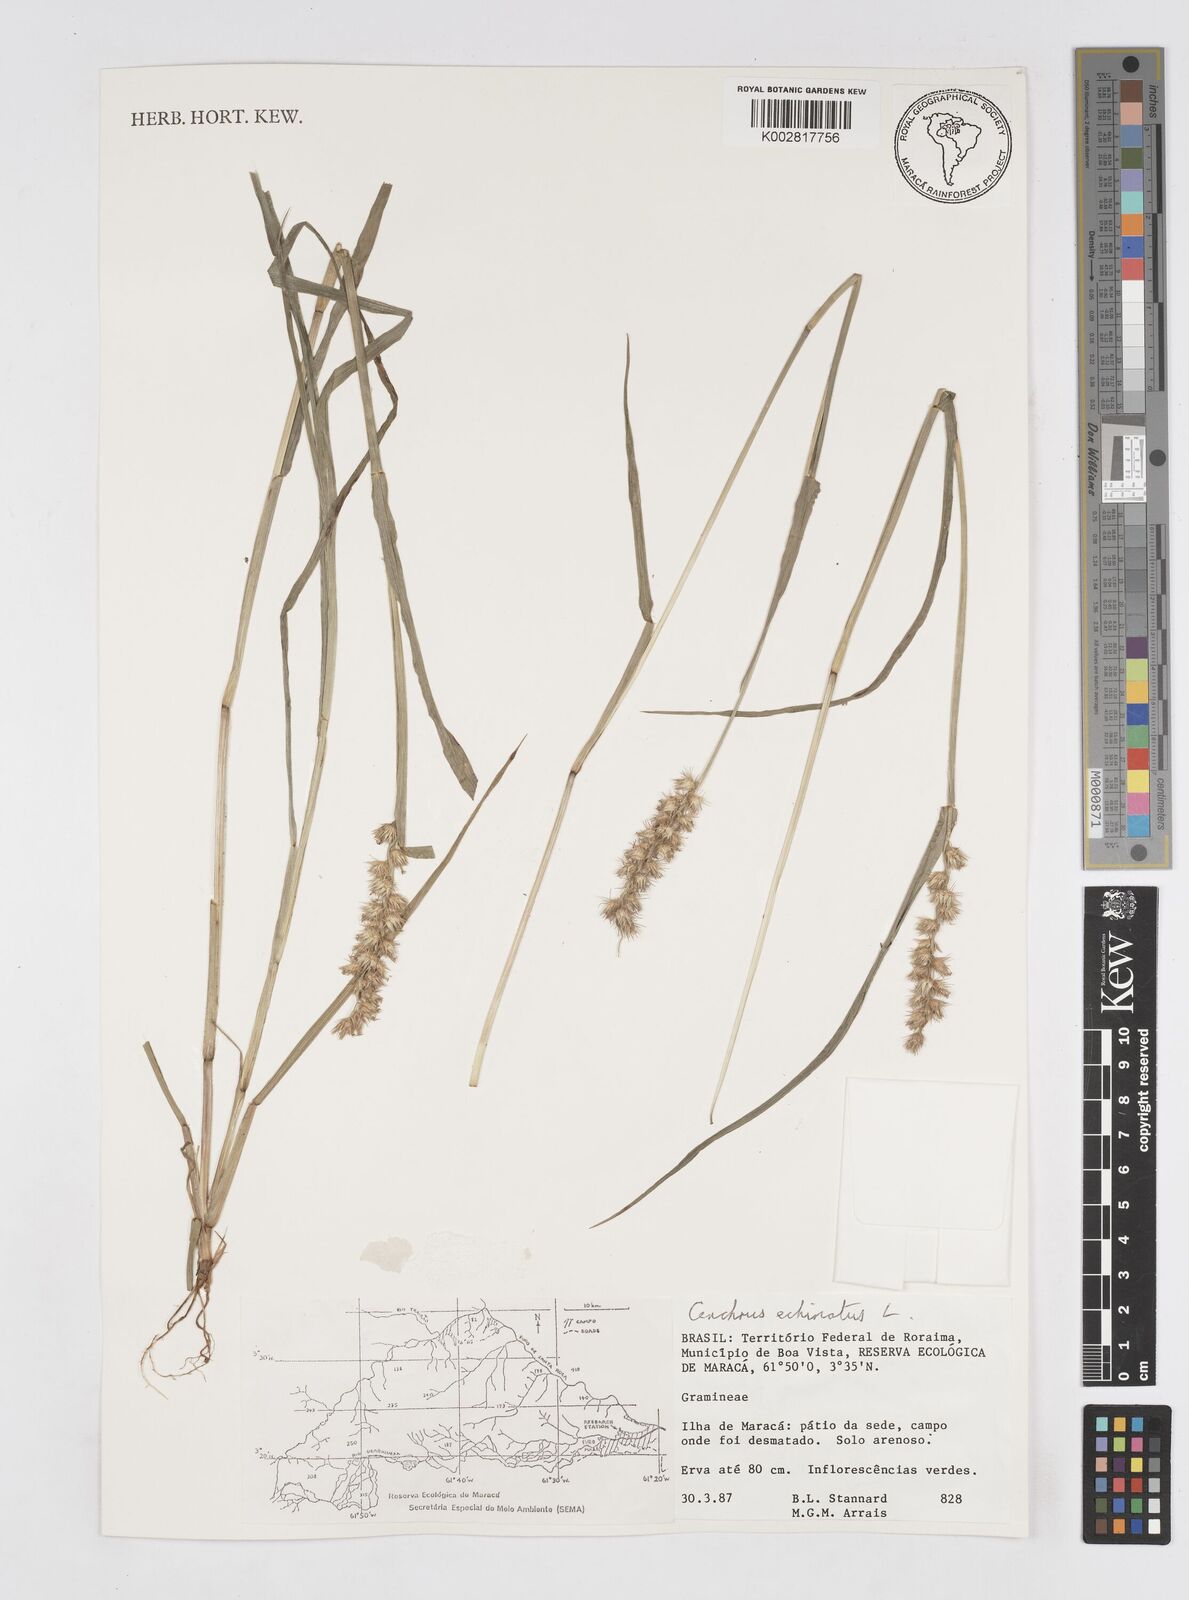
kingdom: Plantae
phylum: Tracheophyta
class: Liliopsida
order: Poales
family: Poaceae
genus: Cenchrus
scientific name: Cenchrus
